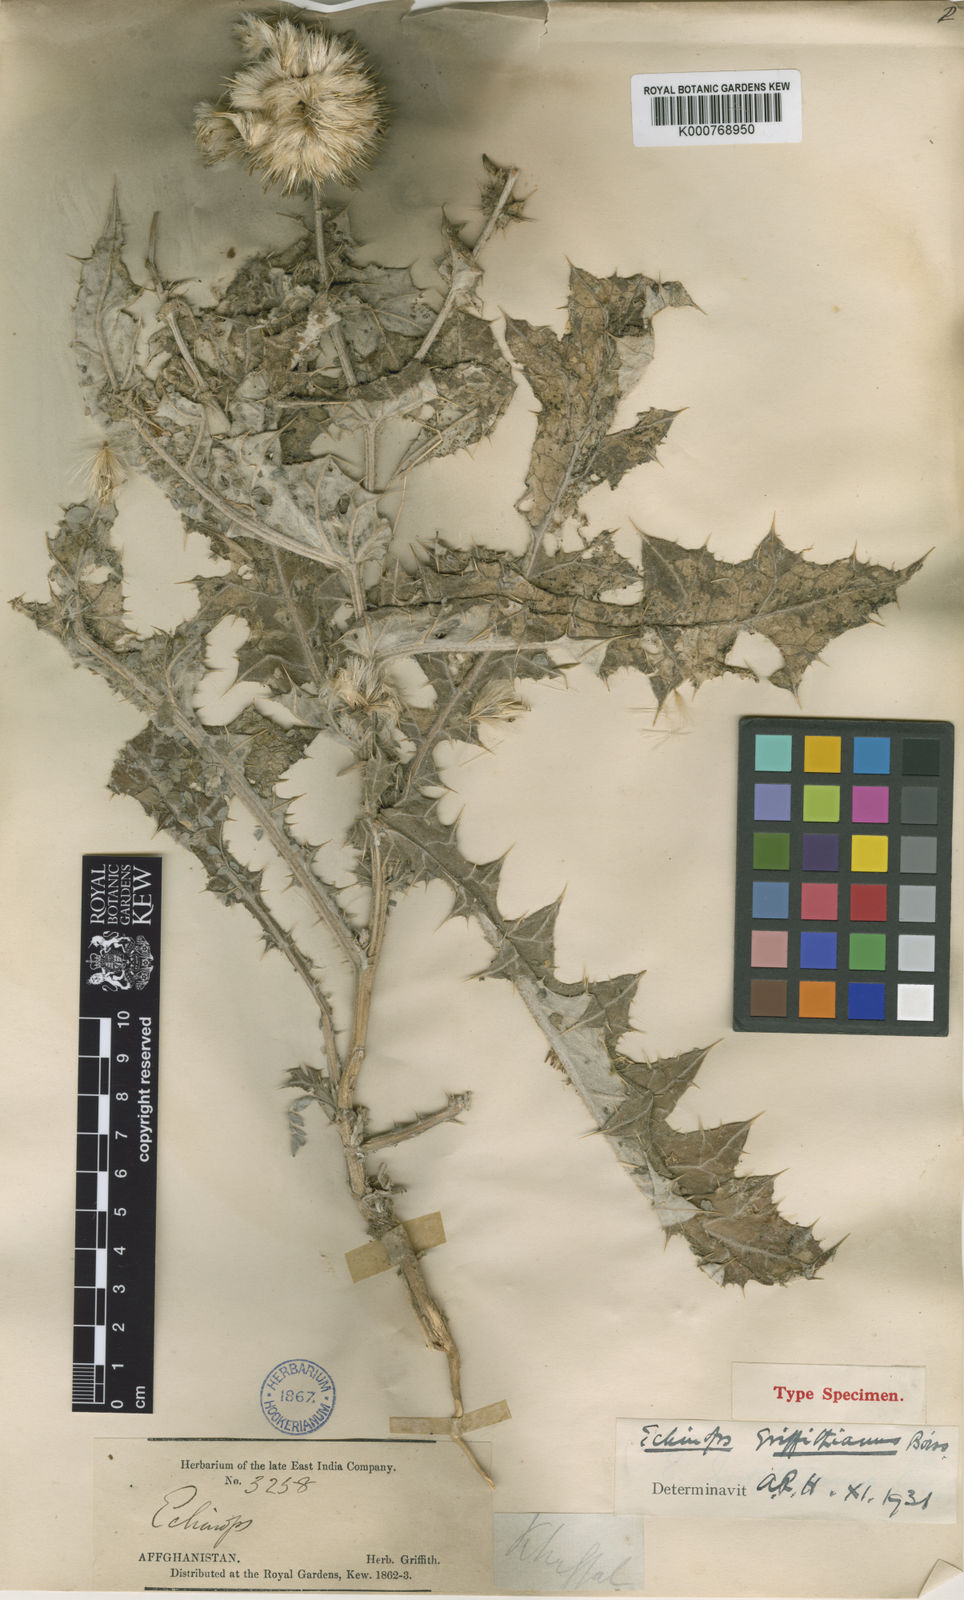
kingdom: Plantae
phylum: Tracheophyta
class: Magnoliopsida
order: Asterales
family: Asteraceae
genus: Echinops
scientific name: Echinops griffithianus
